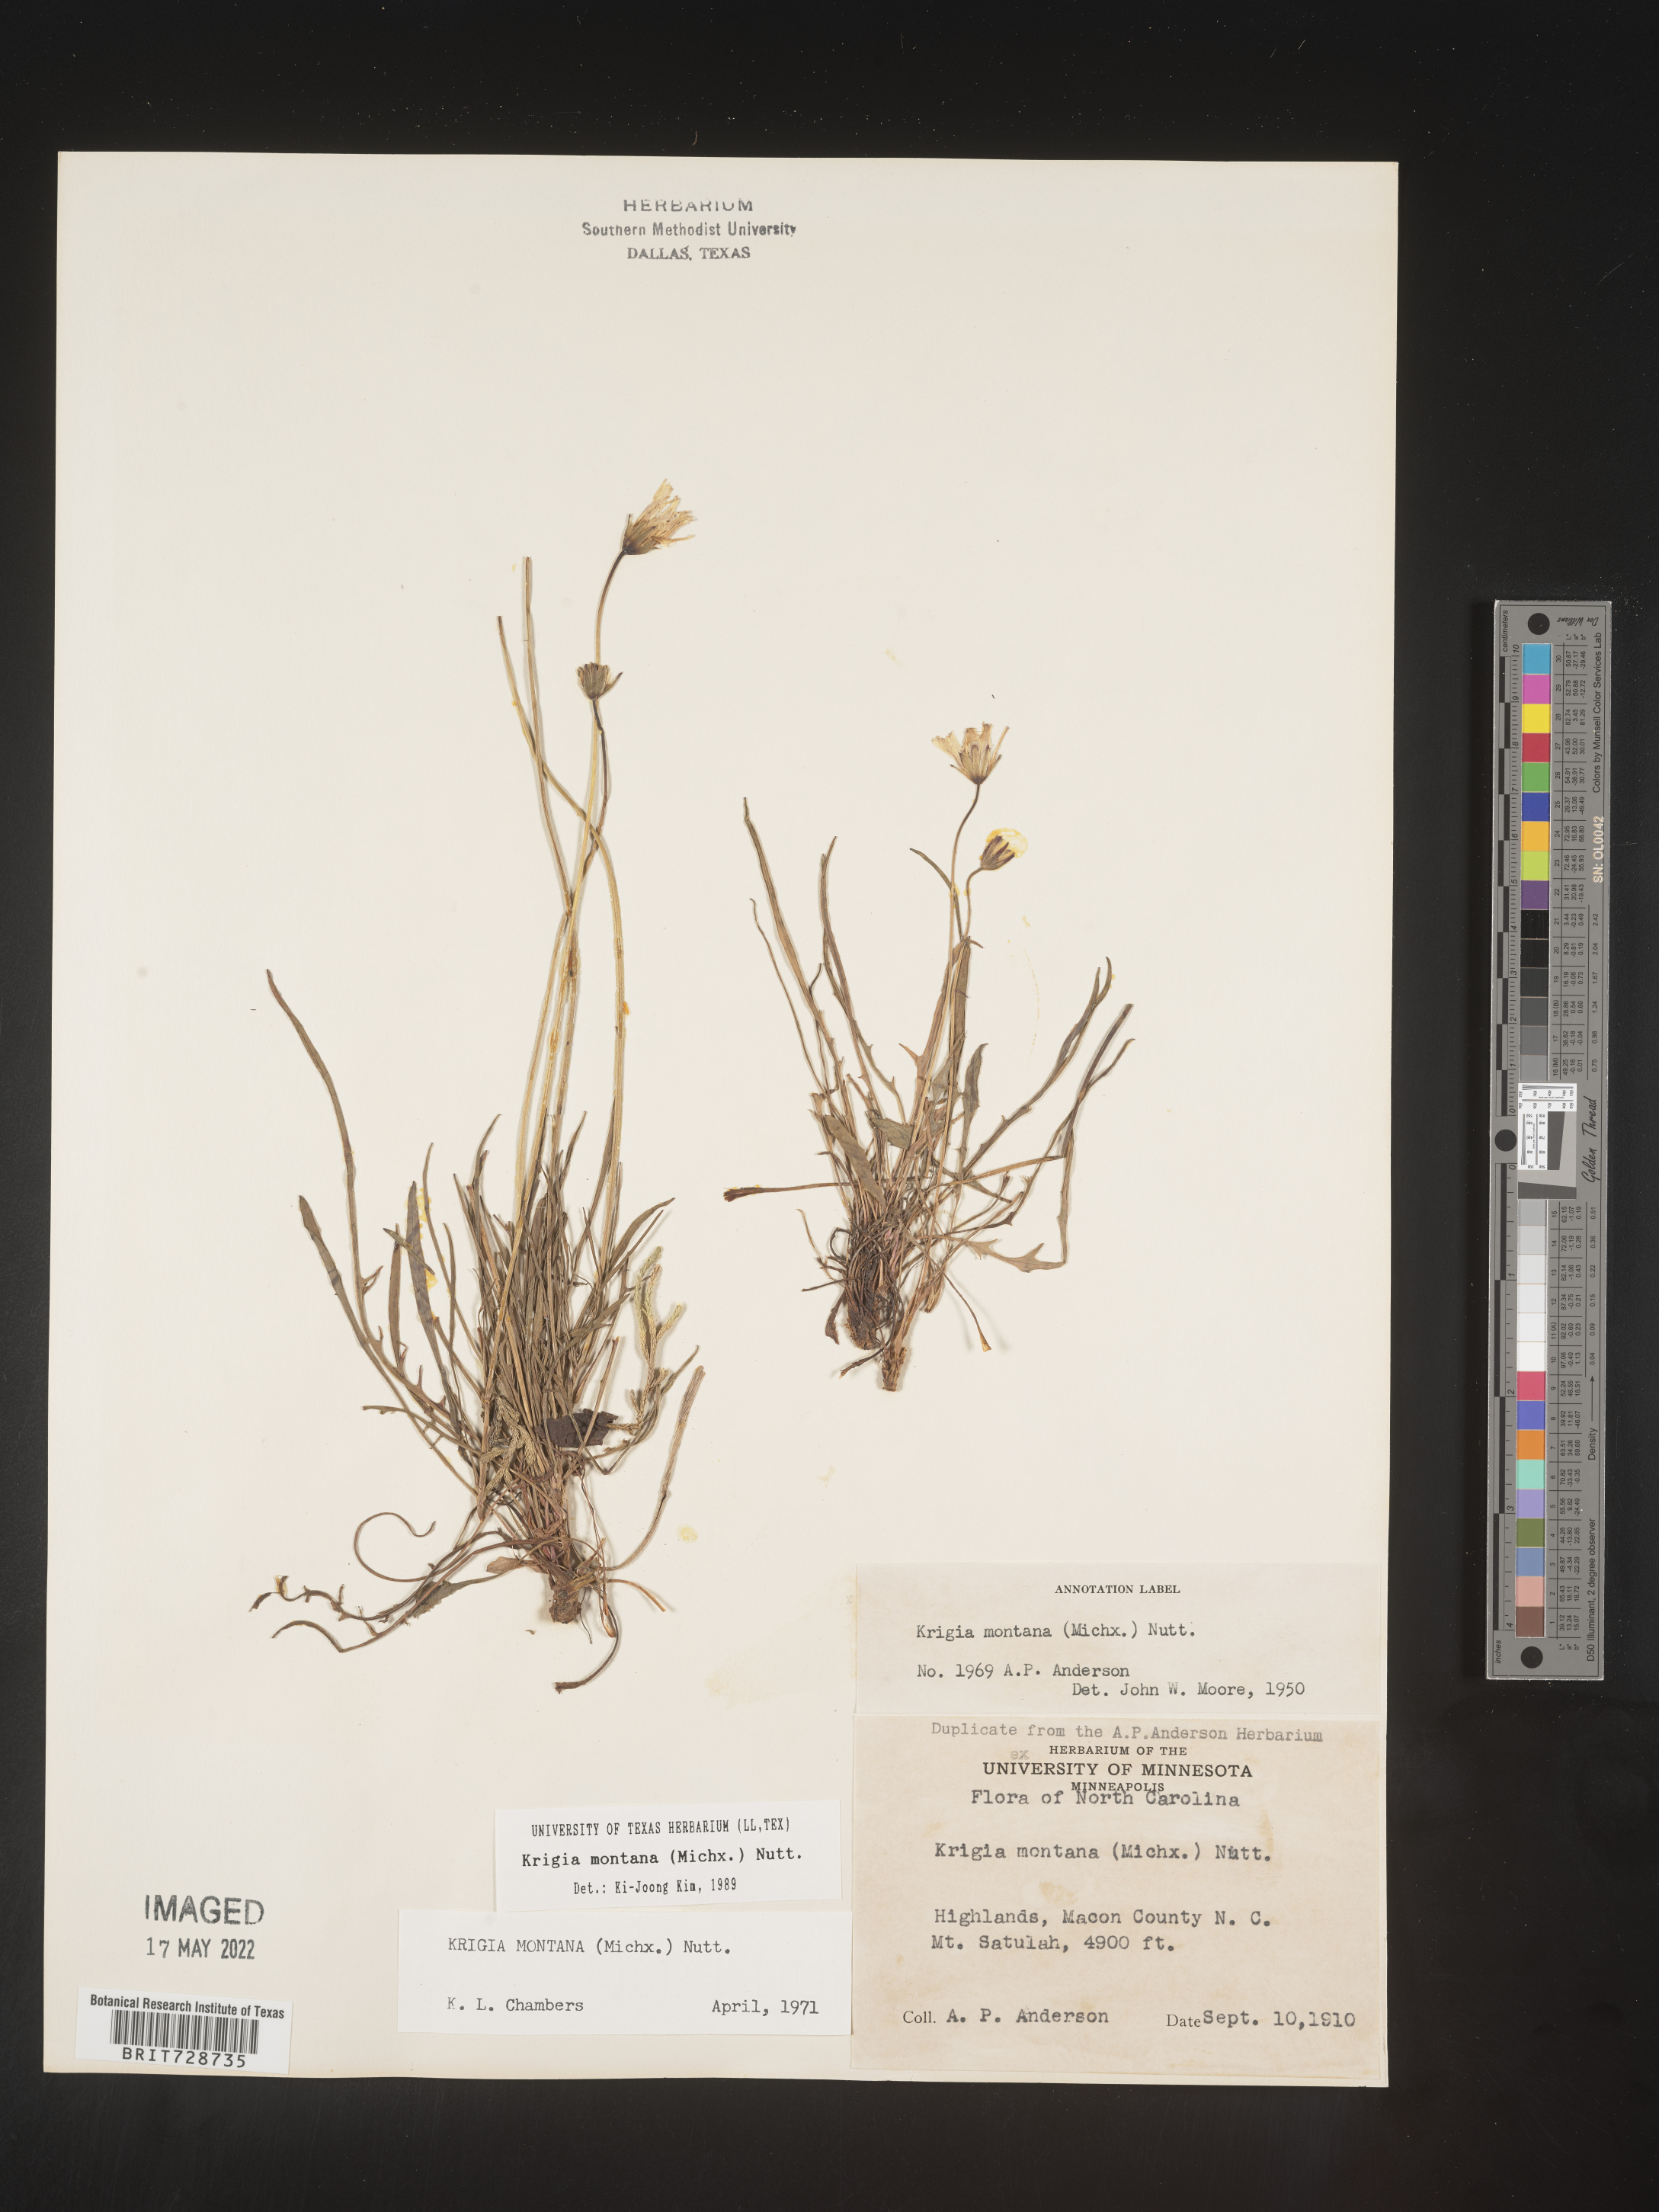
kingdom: Plantae
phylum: Tracheophyta
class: Magnoliopsida
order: Asterales
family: Asteraceae
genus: Krigia
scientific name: Krigia montana
